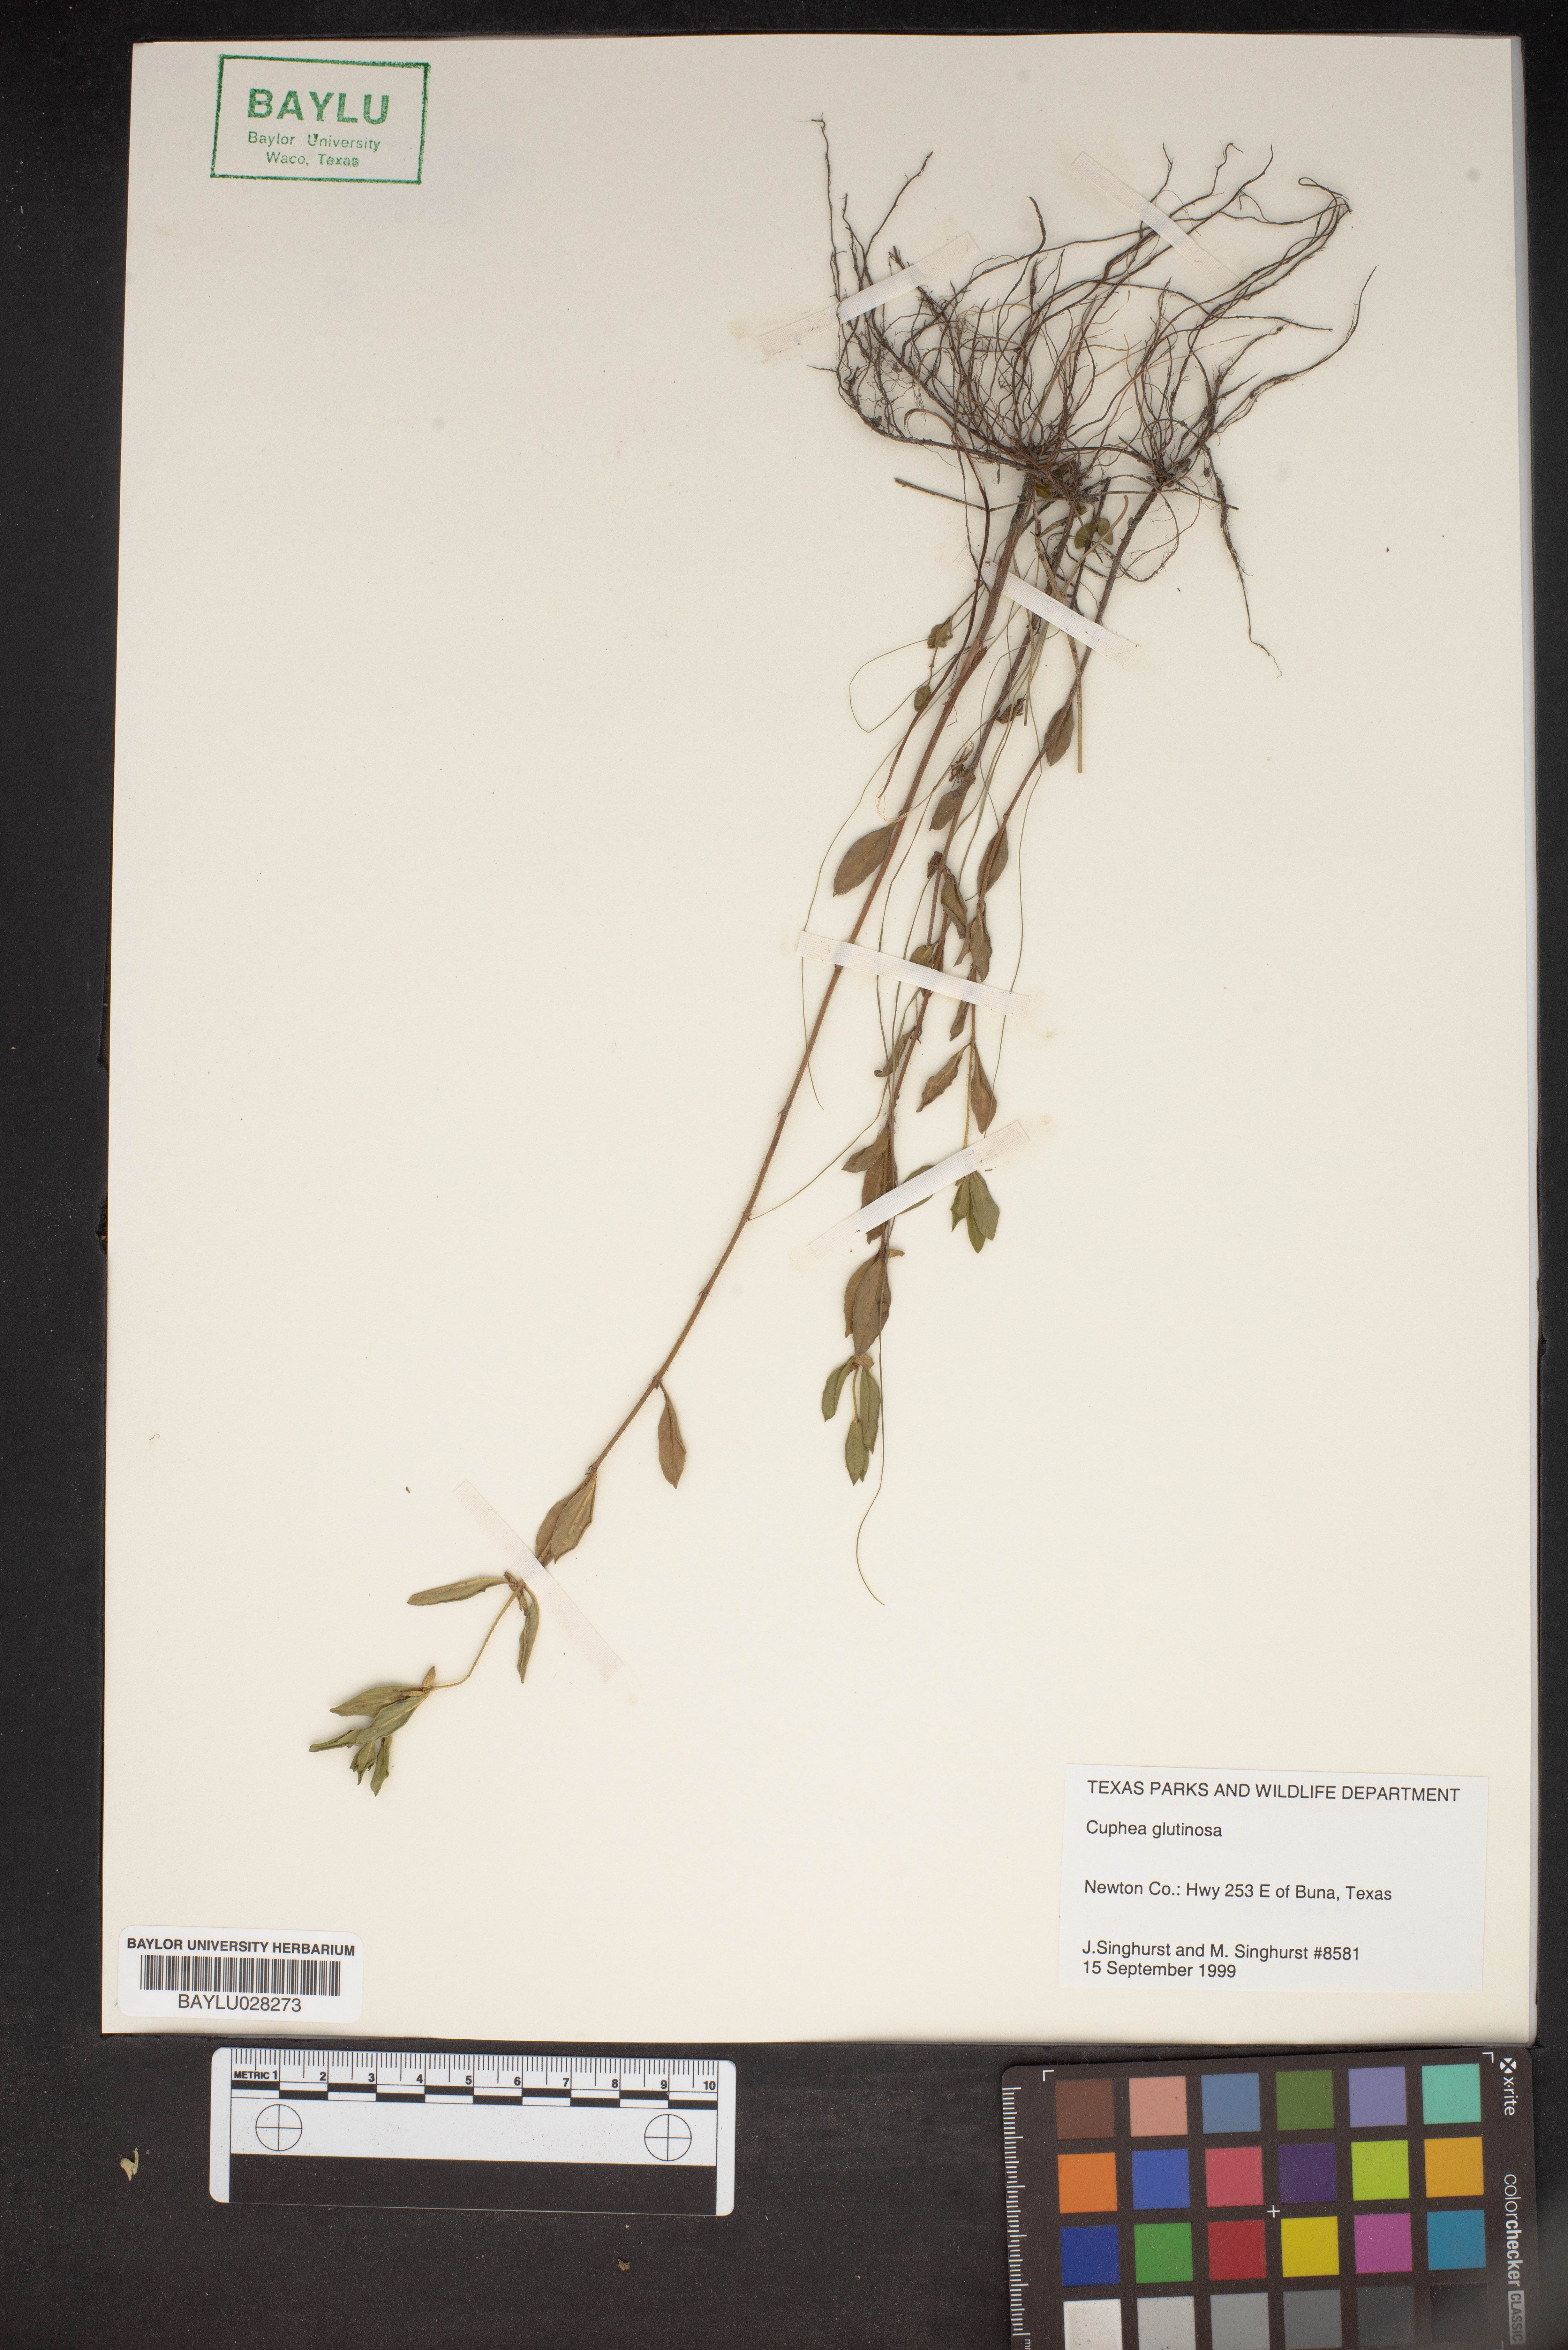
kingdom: Plantae
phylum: Tracheophyta
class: Magnoliopsida
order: Myrtales
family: Lythraceae
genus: Cuphea
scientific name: Cuphea glutinosa
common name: Sticky waxweed
